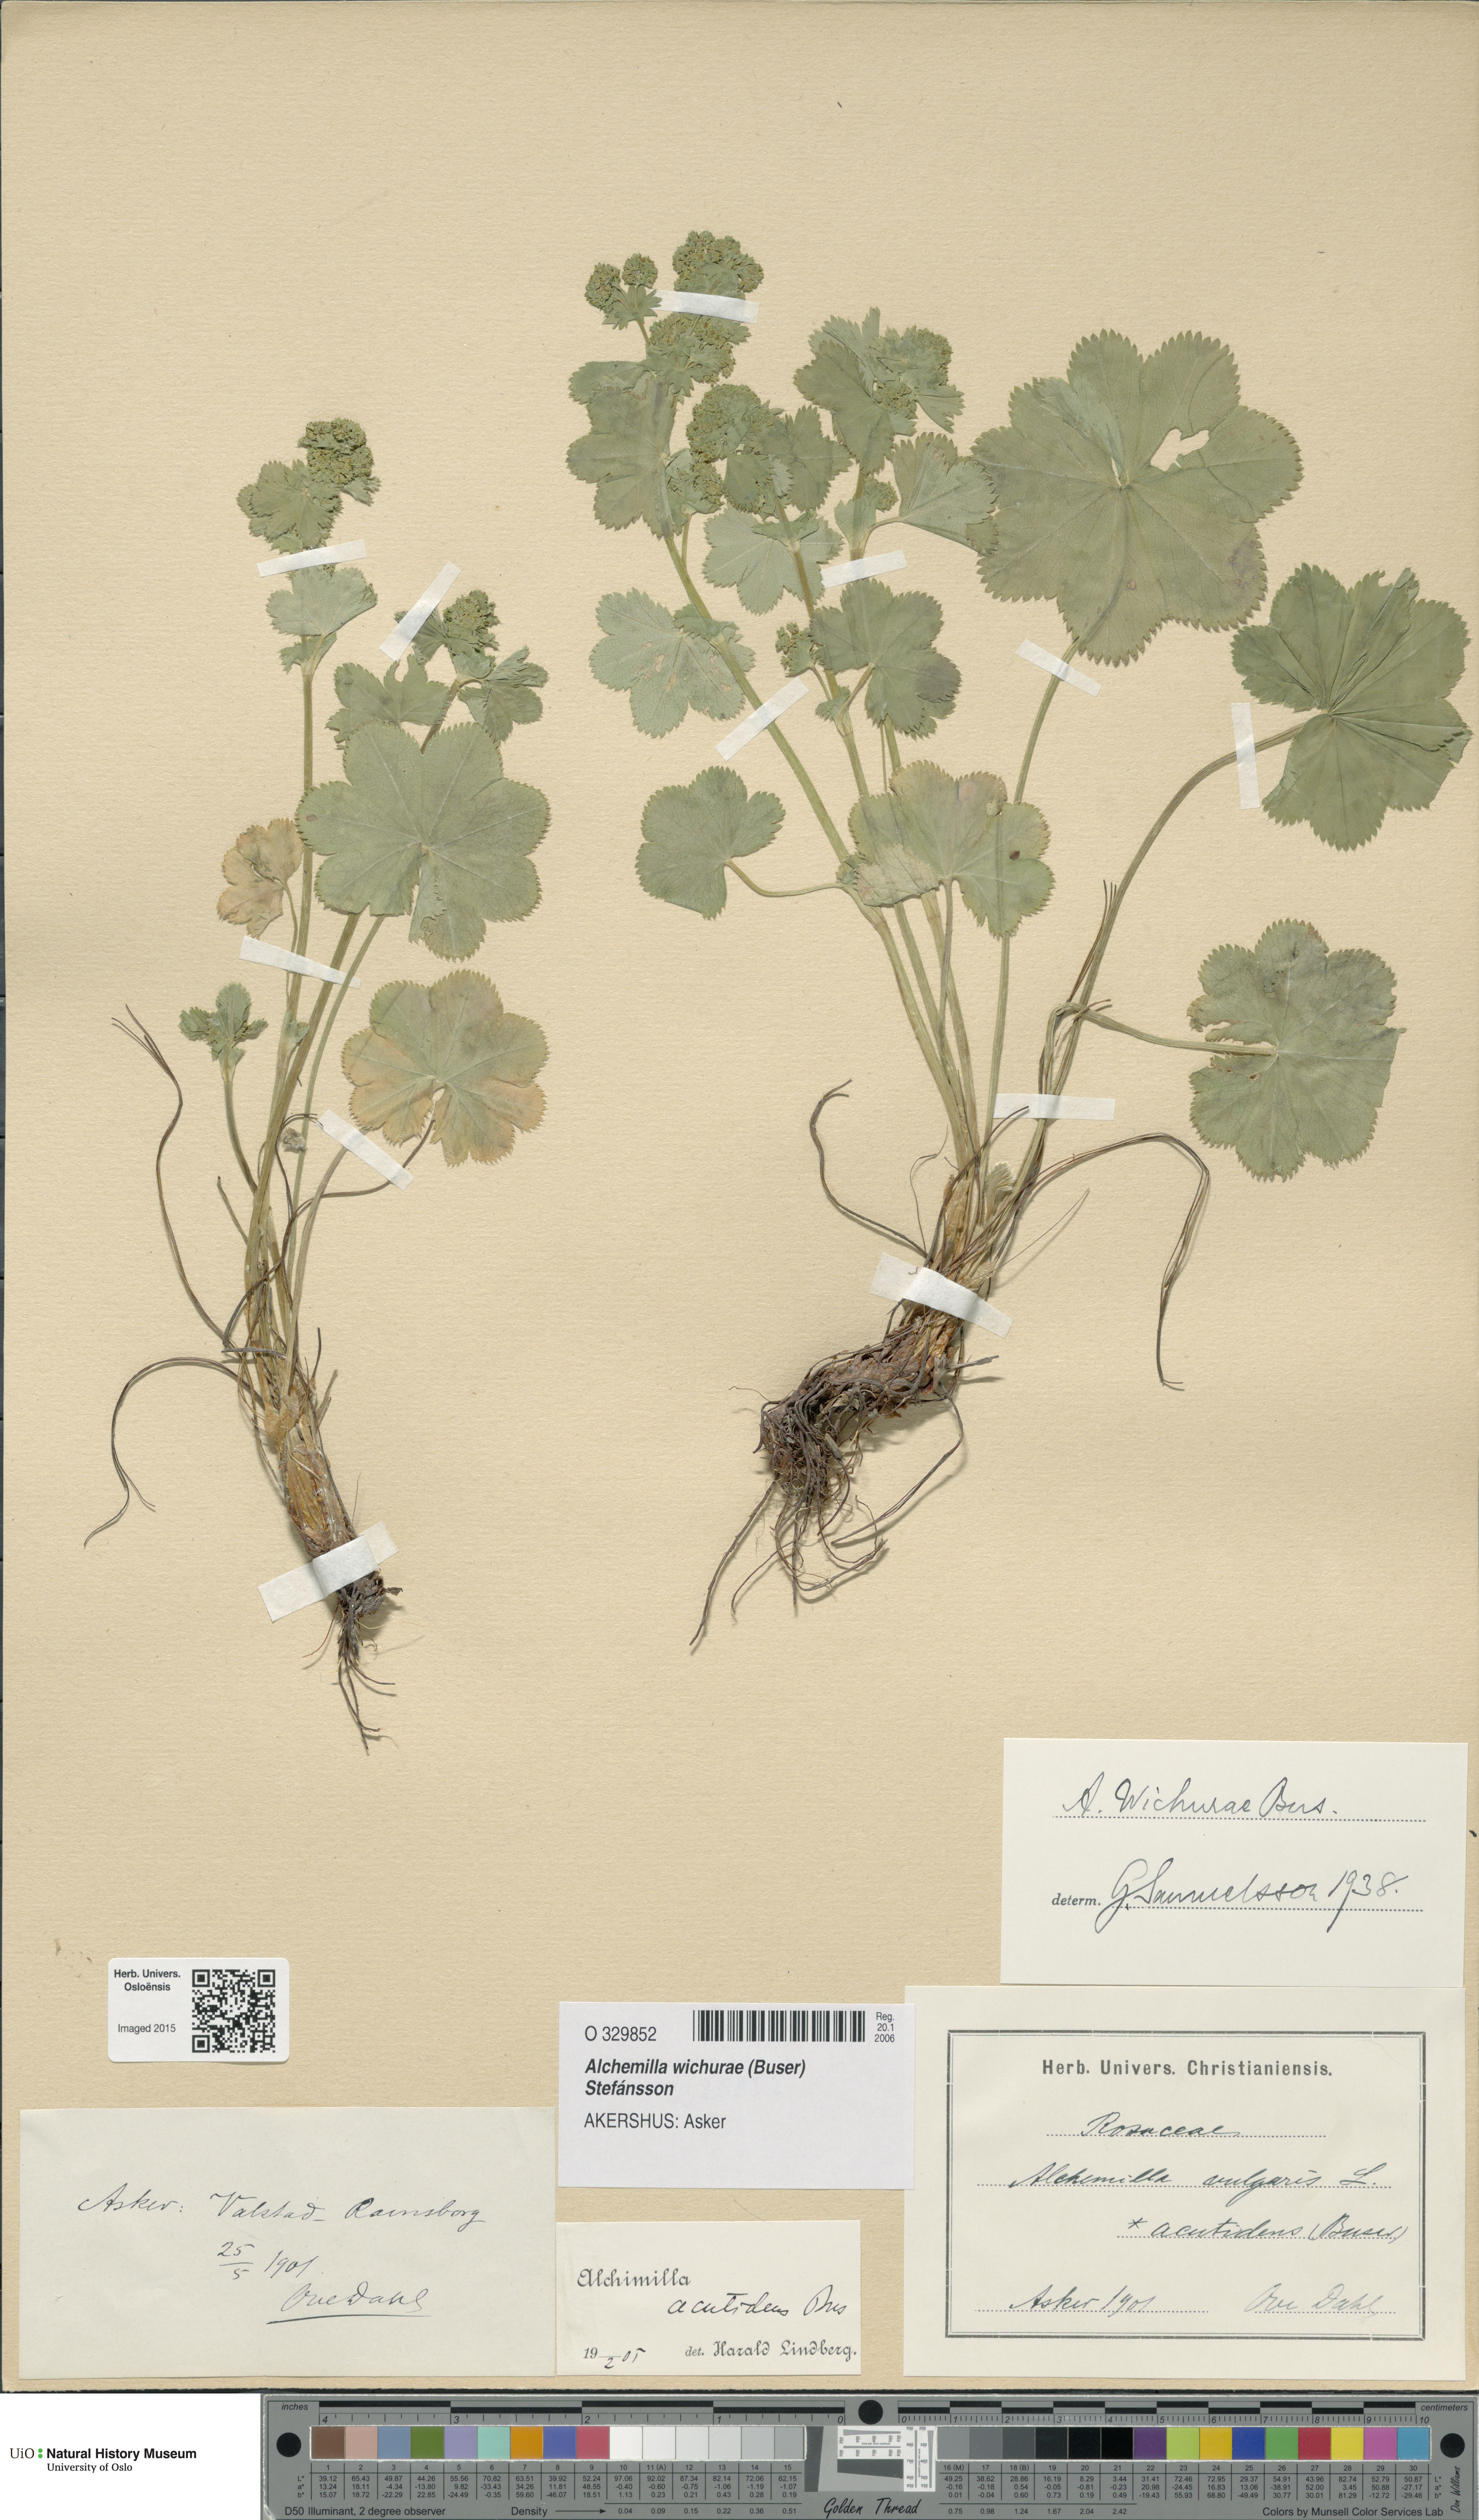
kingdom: Plantae
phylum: Tracheophyta
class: Magnoliopsida
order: Rosales
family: Rosaceae
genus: Alchemilla
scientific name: Alchemilla wichurae
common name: Rock lady's mantle
